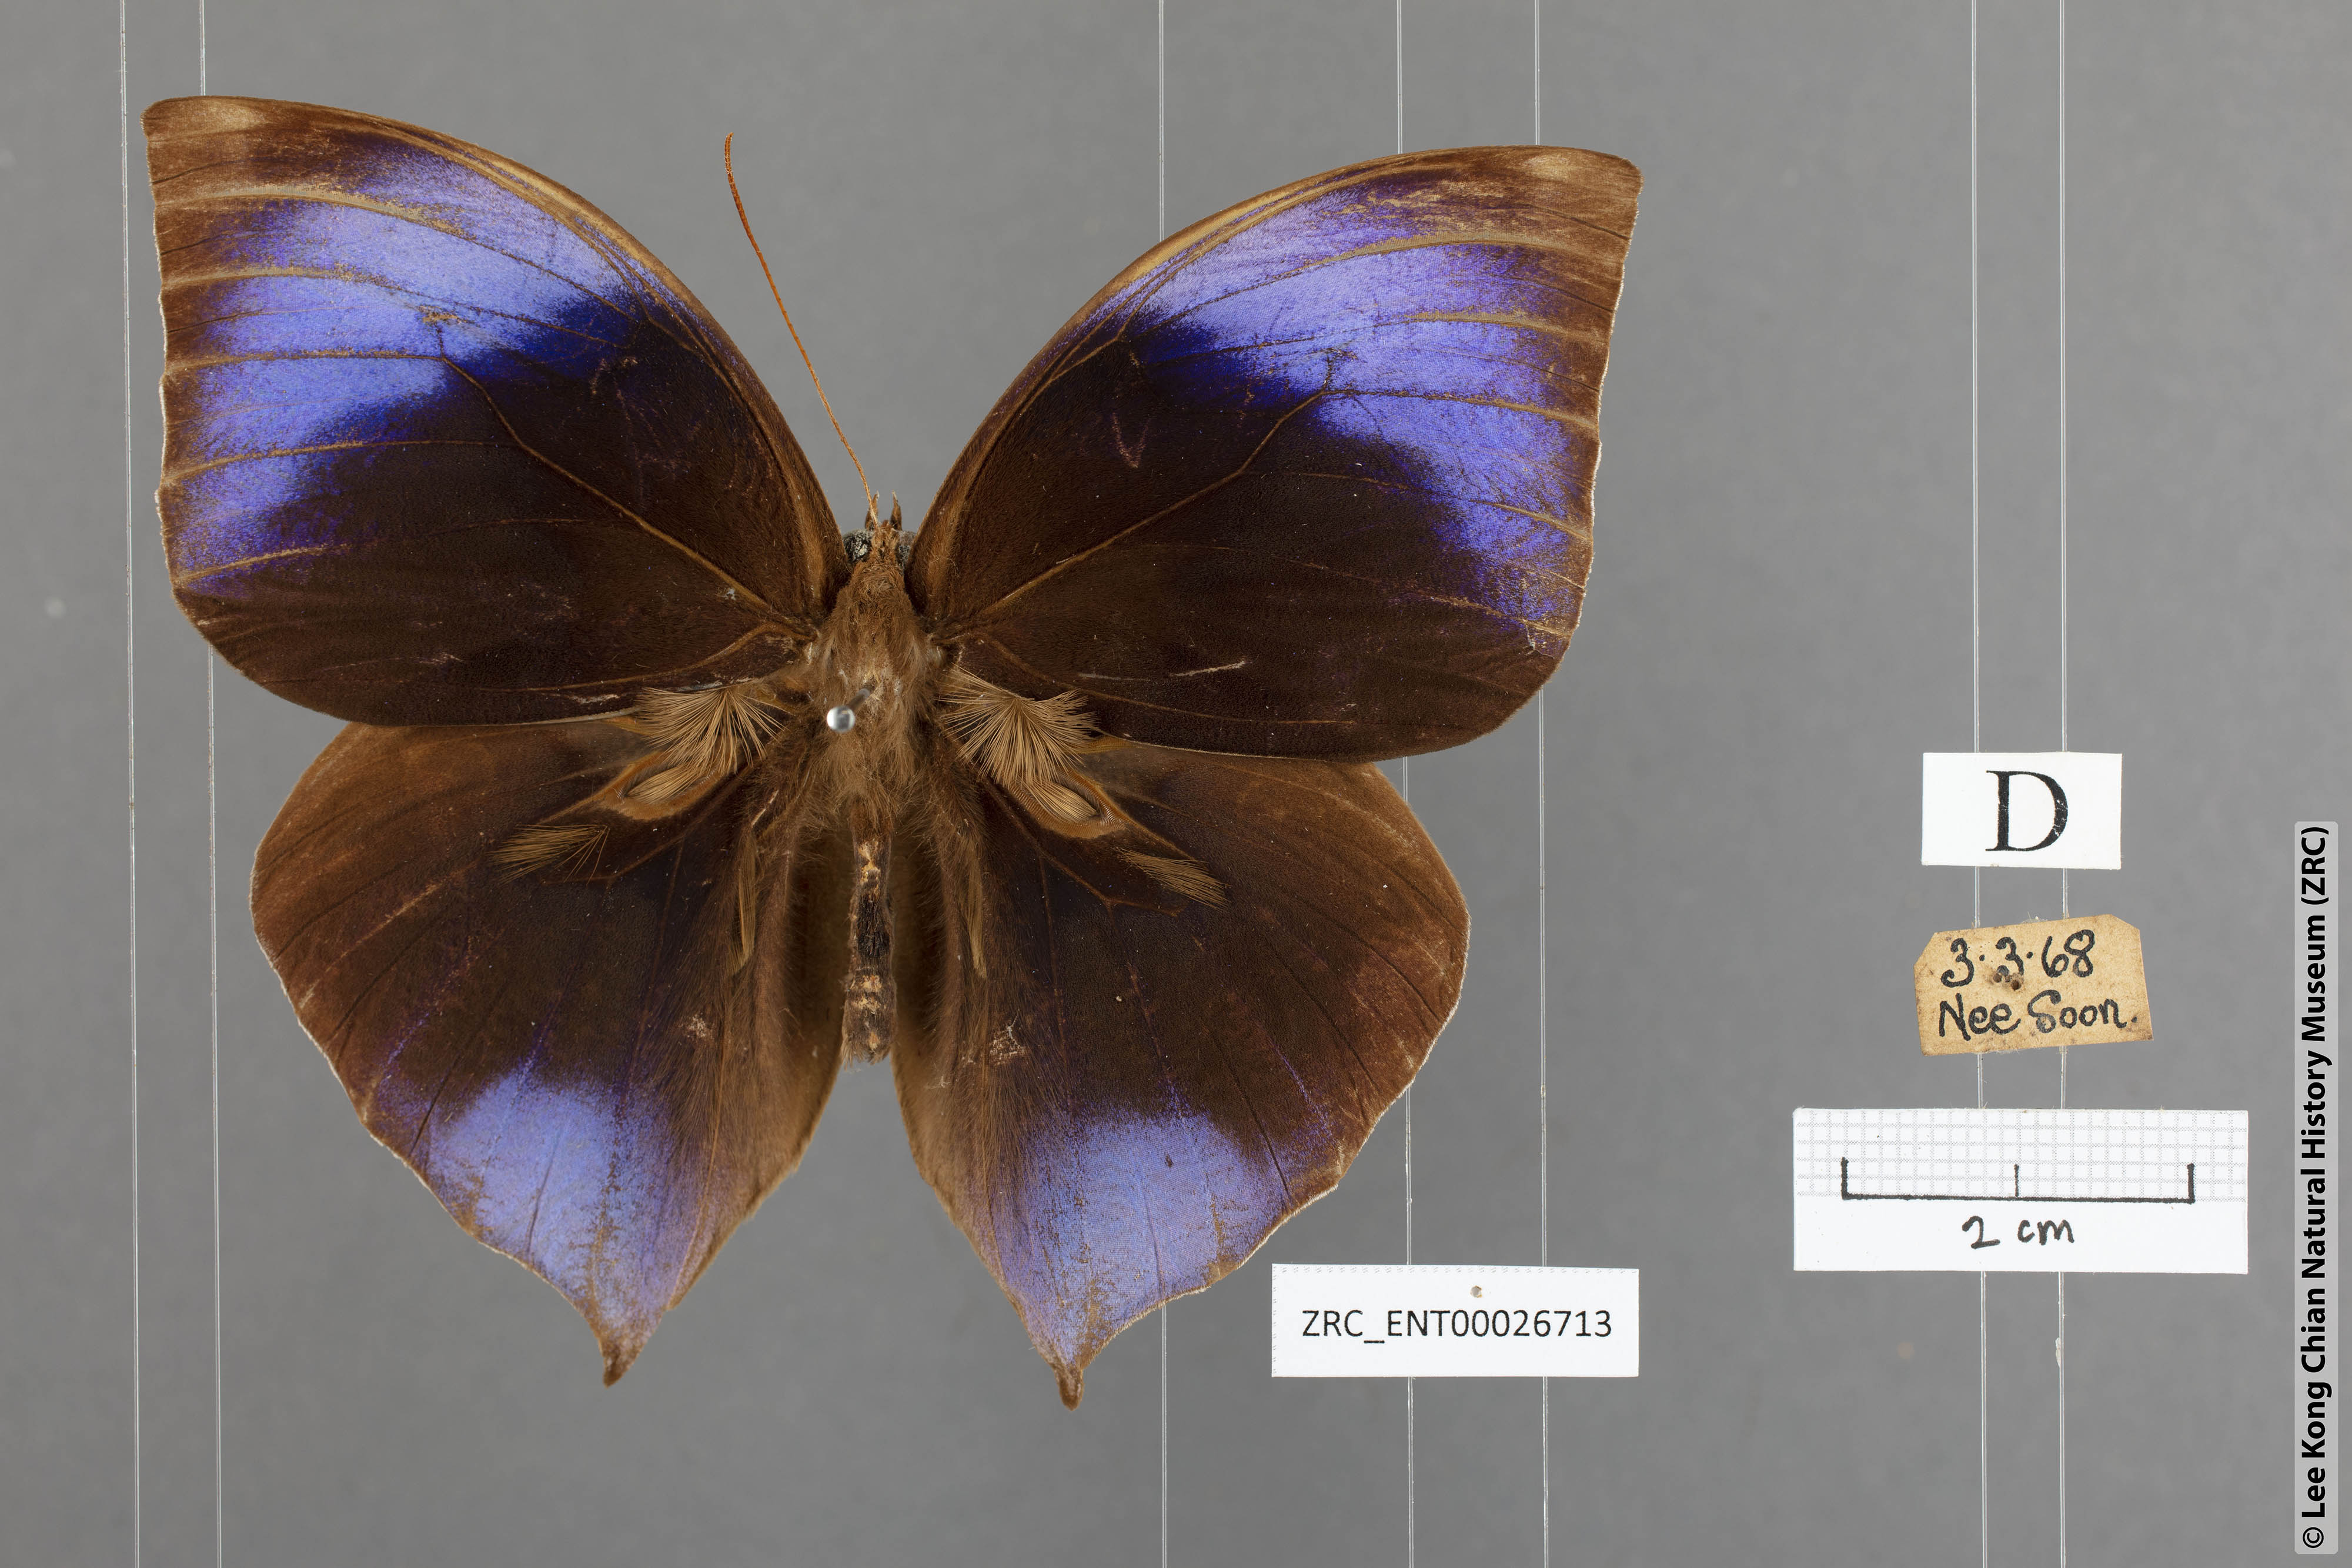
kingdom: Animalia
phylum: Arthropoda
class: Insecta
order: Lepidoptera
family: Nymphalidae
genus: Zeuxidia
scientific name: Zeuxidia ameythystus
